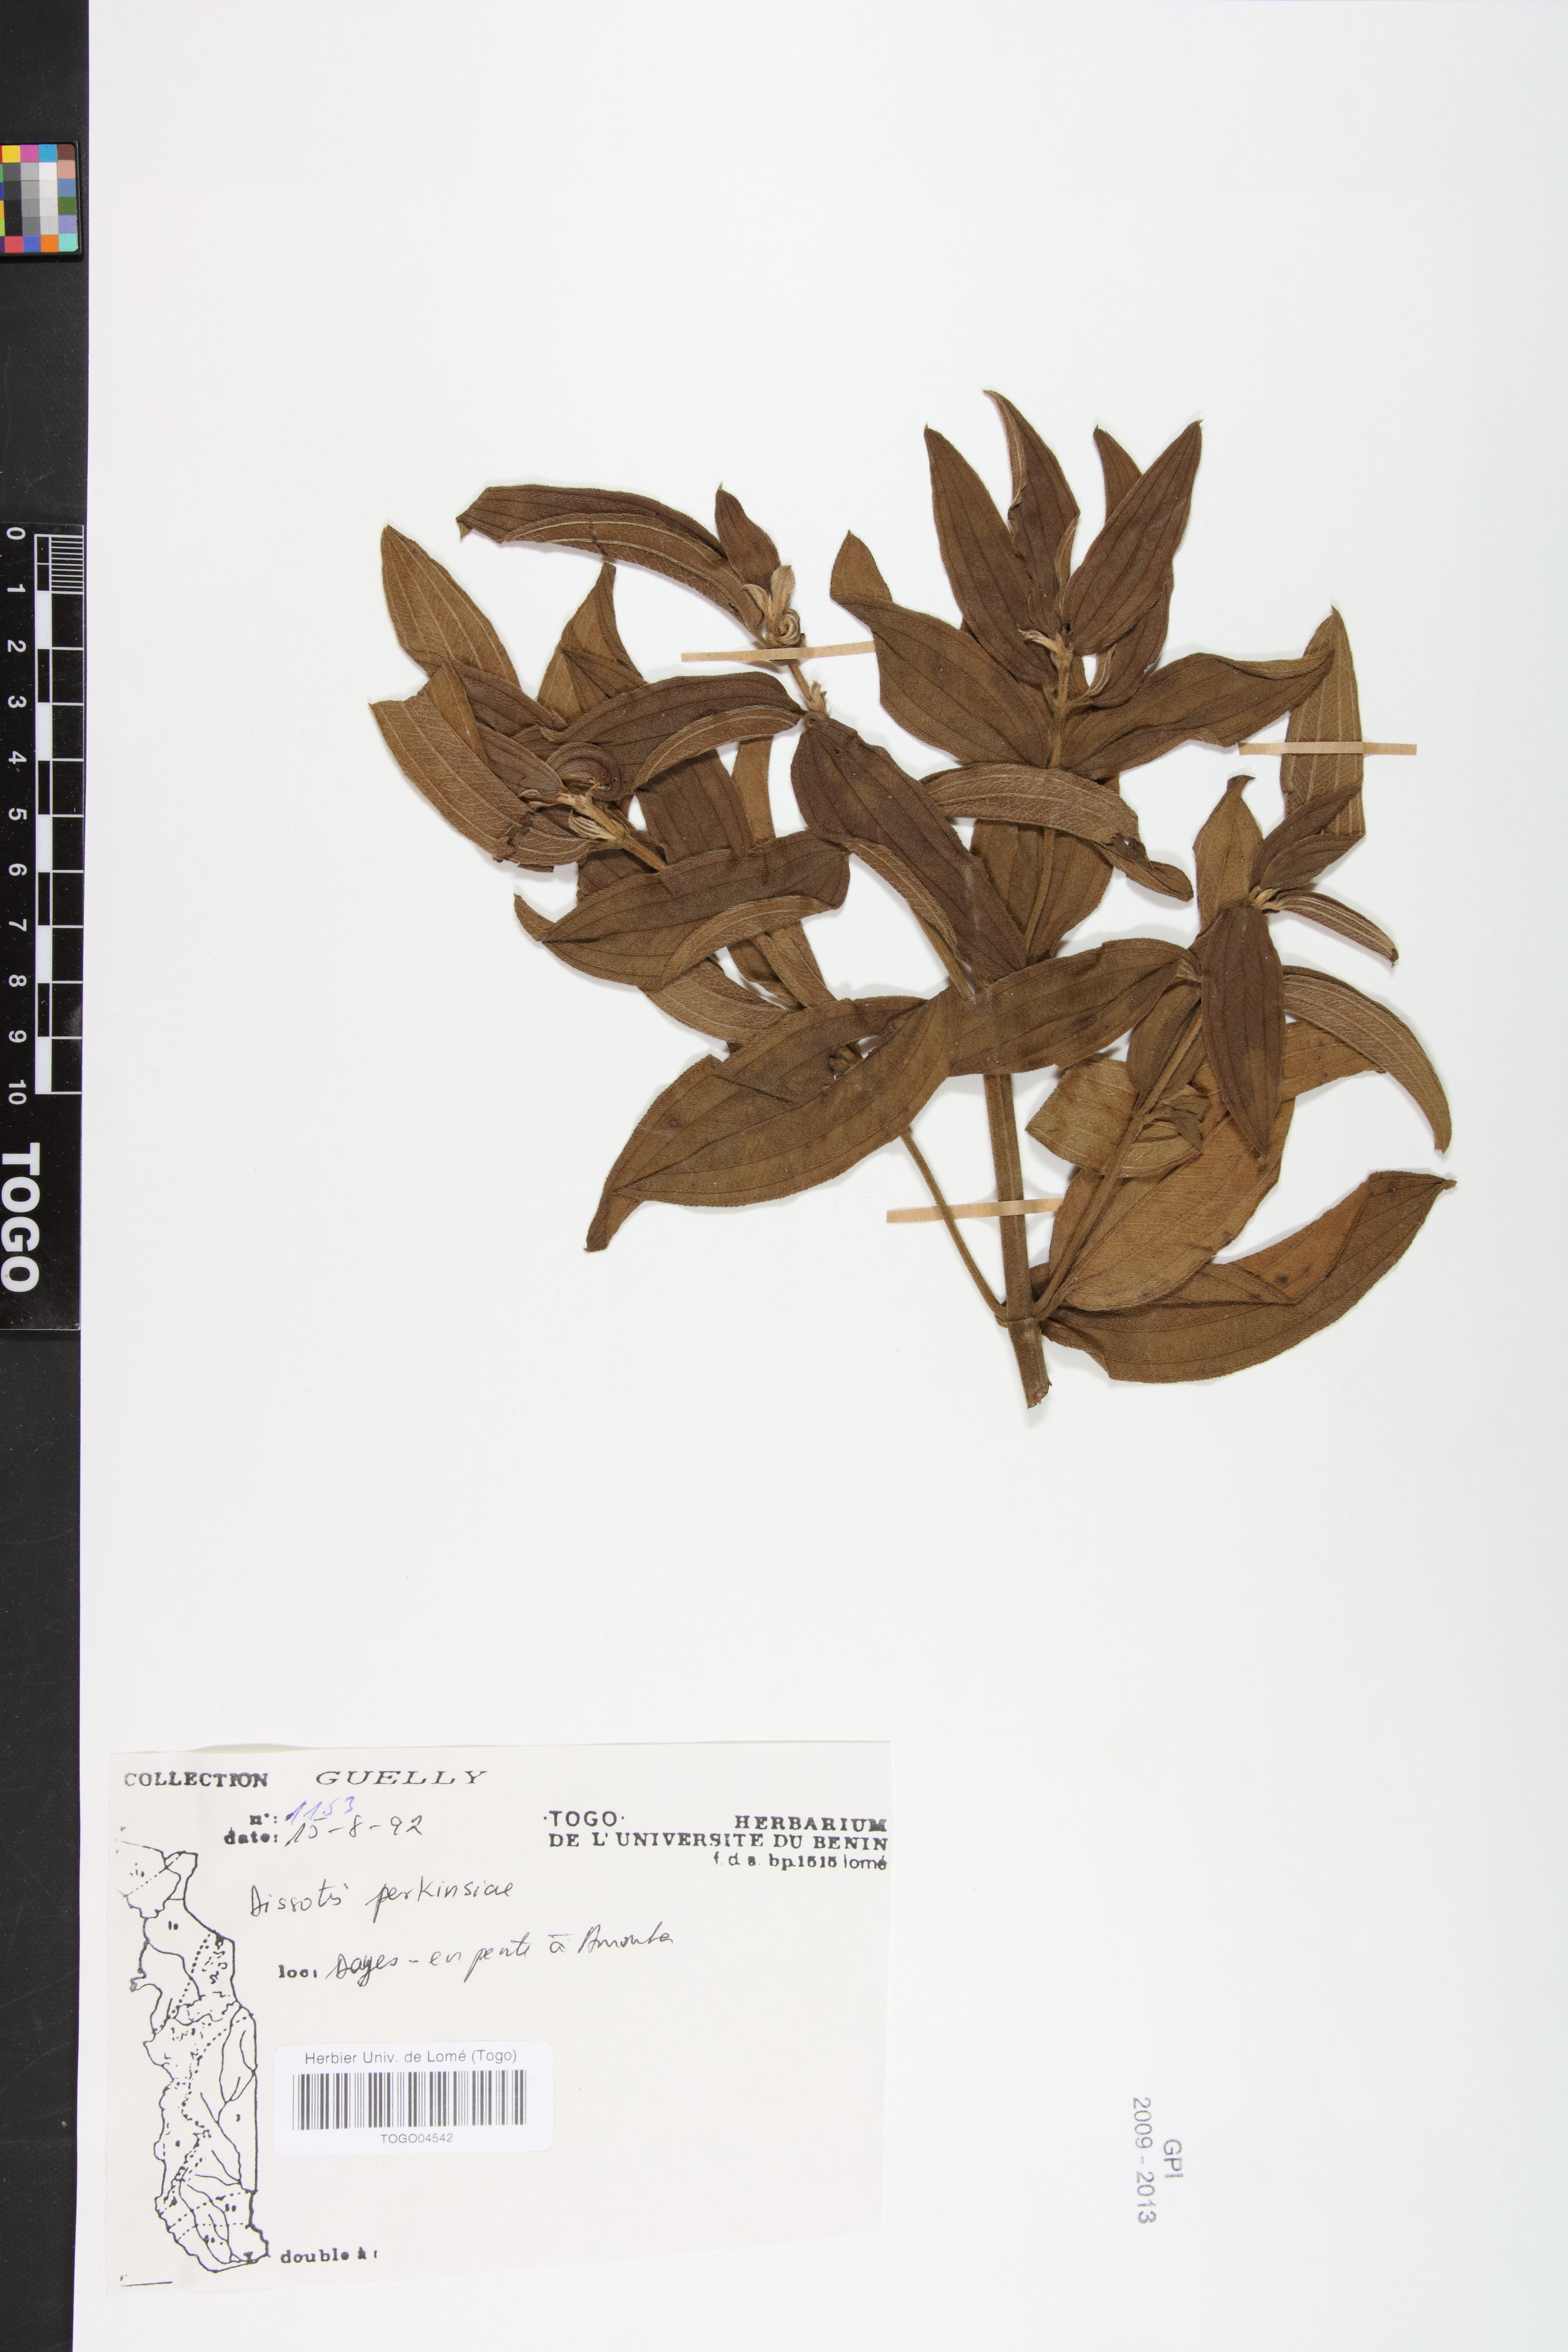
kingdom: Plantae
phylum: Tracheophyta
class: Magnoliopsida
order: Myrtales
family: Melastomataceae
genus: Feliciotis
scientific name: Feliciotis perkinsiae
